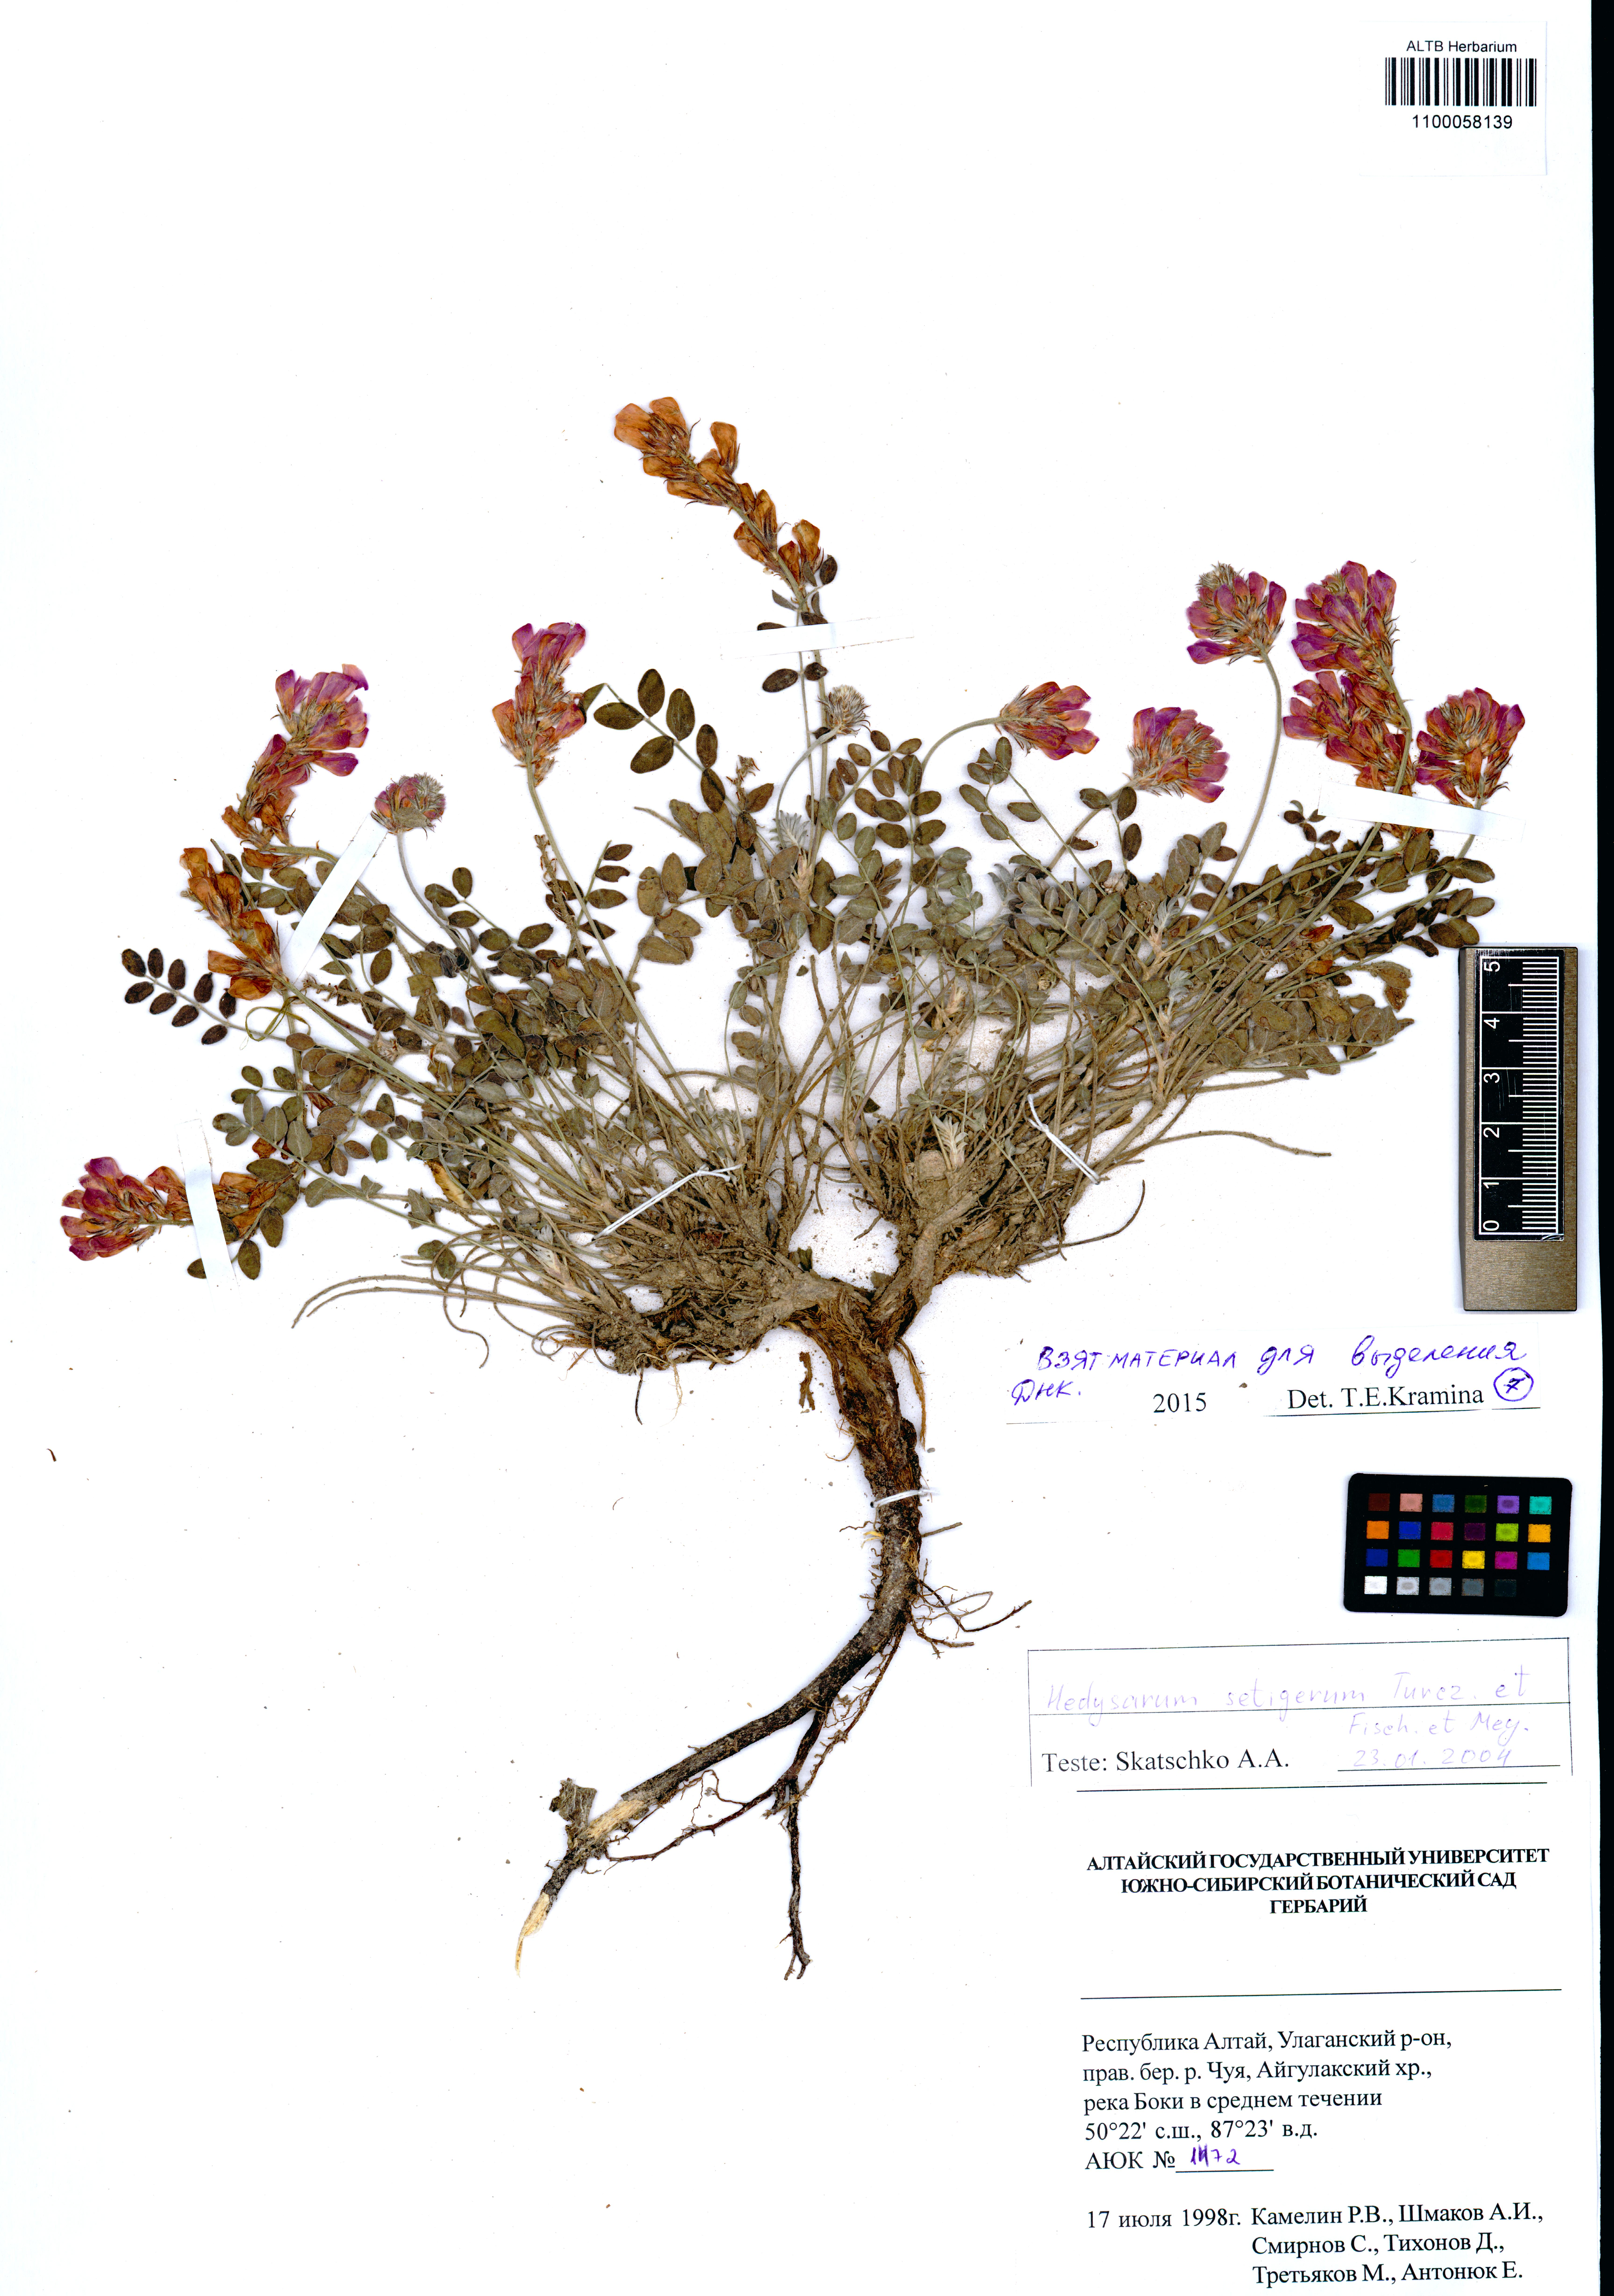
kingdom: Plantae
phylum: Tracheophyta
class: Magnoliopsida
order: Fabales
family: Fabaceae
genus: Hedysarum
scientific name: Hedysarum setigerum
